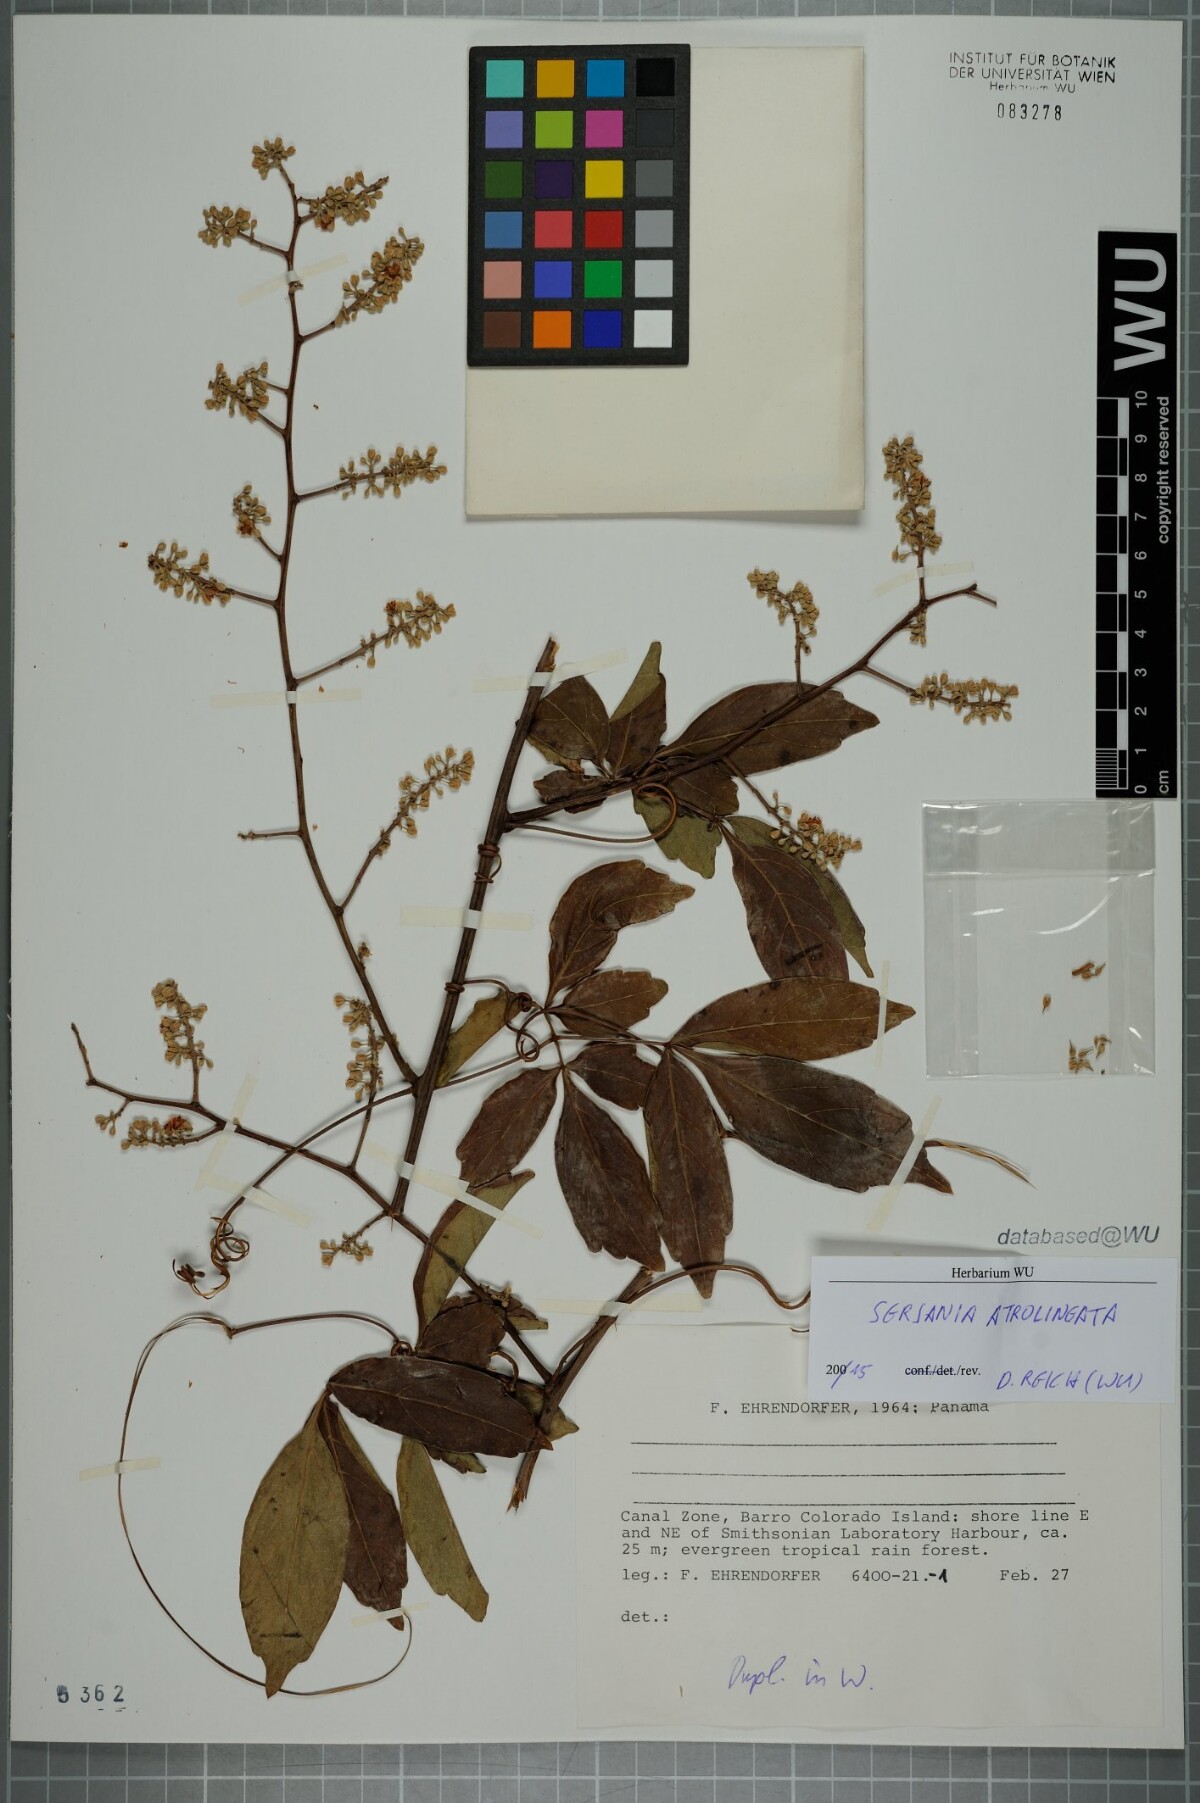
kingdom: Plantae
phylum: Tracheophyta
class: Magnoliopsida
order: Sapindales
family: Sapindaceae
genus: Serjania
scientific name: Serjania atrolineata
